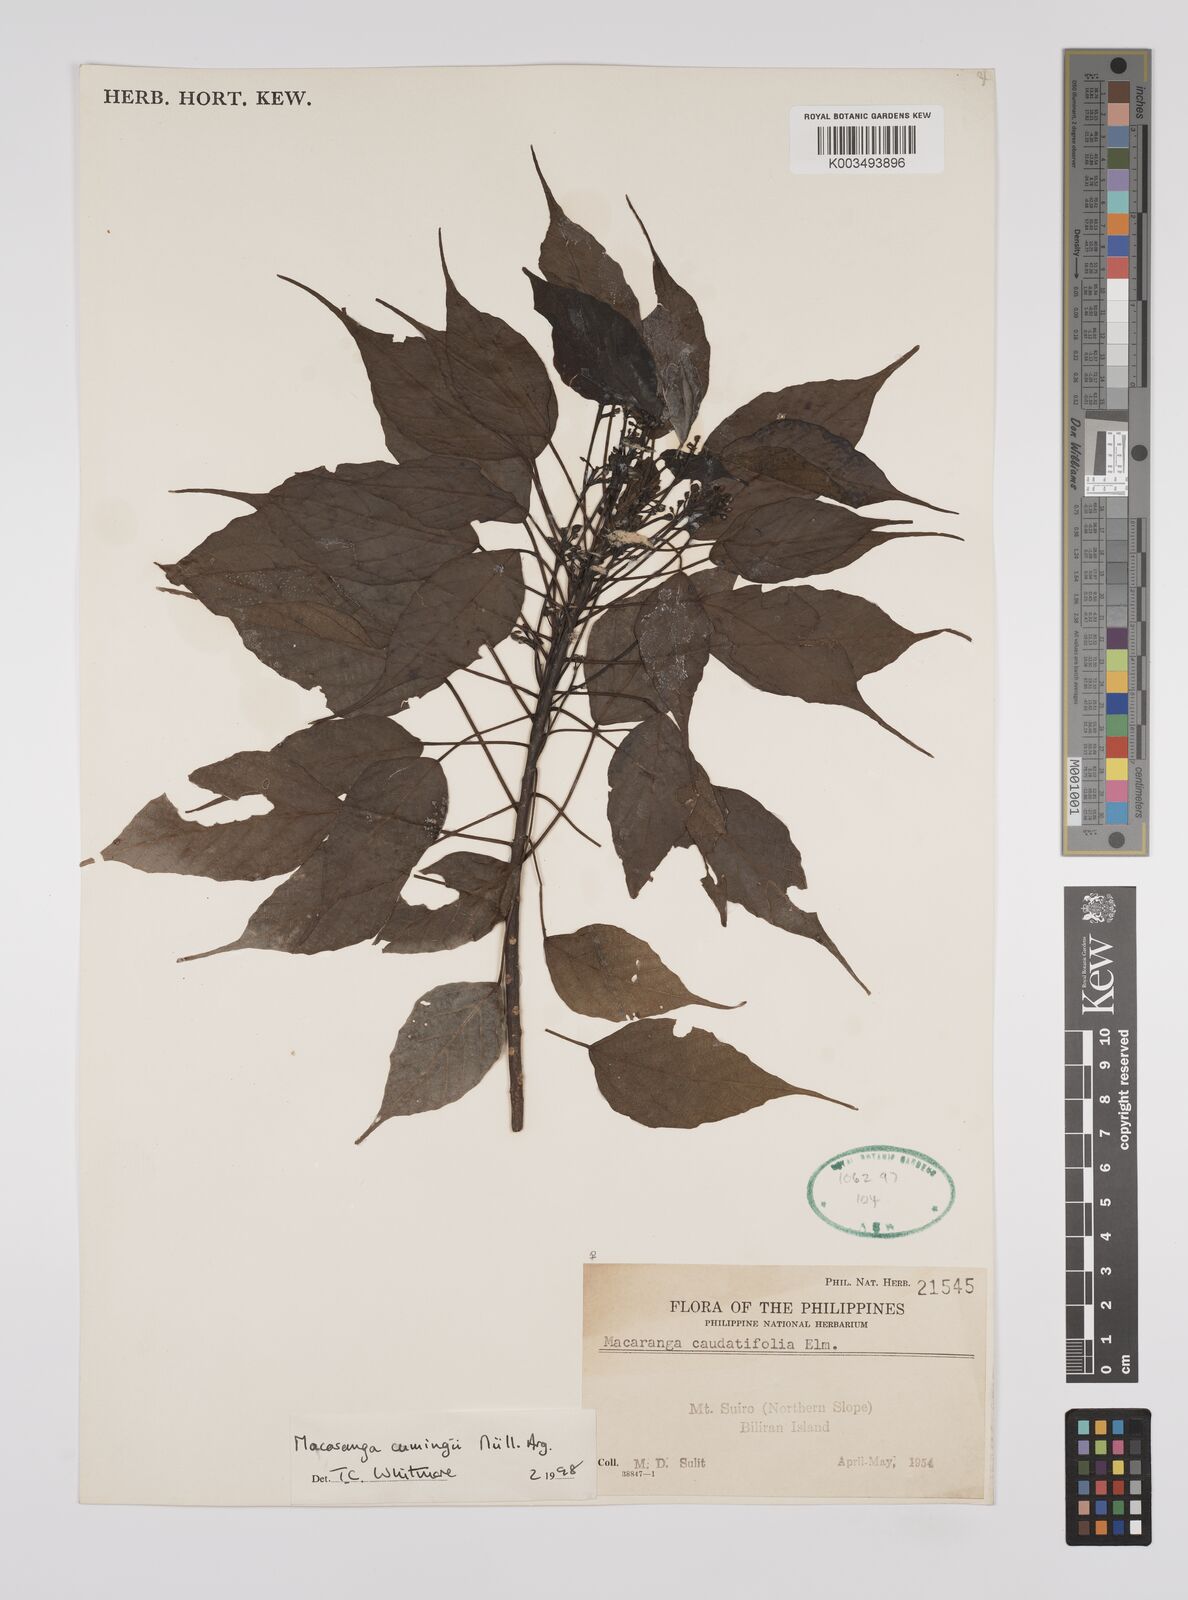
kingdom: Plantae
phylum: Tracheophyta
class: Magnoliopsida
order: Malpighiales
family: Euphorbiaceae
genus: Macaranga
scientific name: Macaranga cumingii
